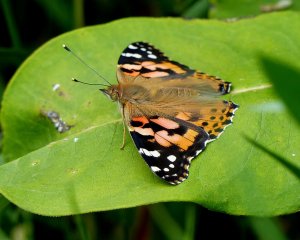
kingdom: Animalia
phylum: Arthropoda
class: Insecta
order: Lepidoptera
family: Nymphalidae
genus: Vanessa
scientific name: Vanessa cardui
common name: Painted Lady
